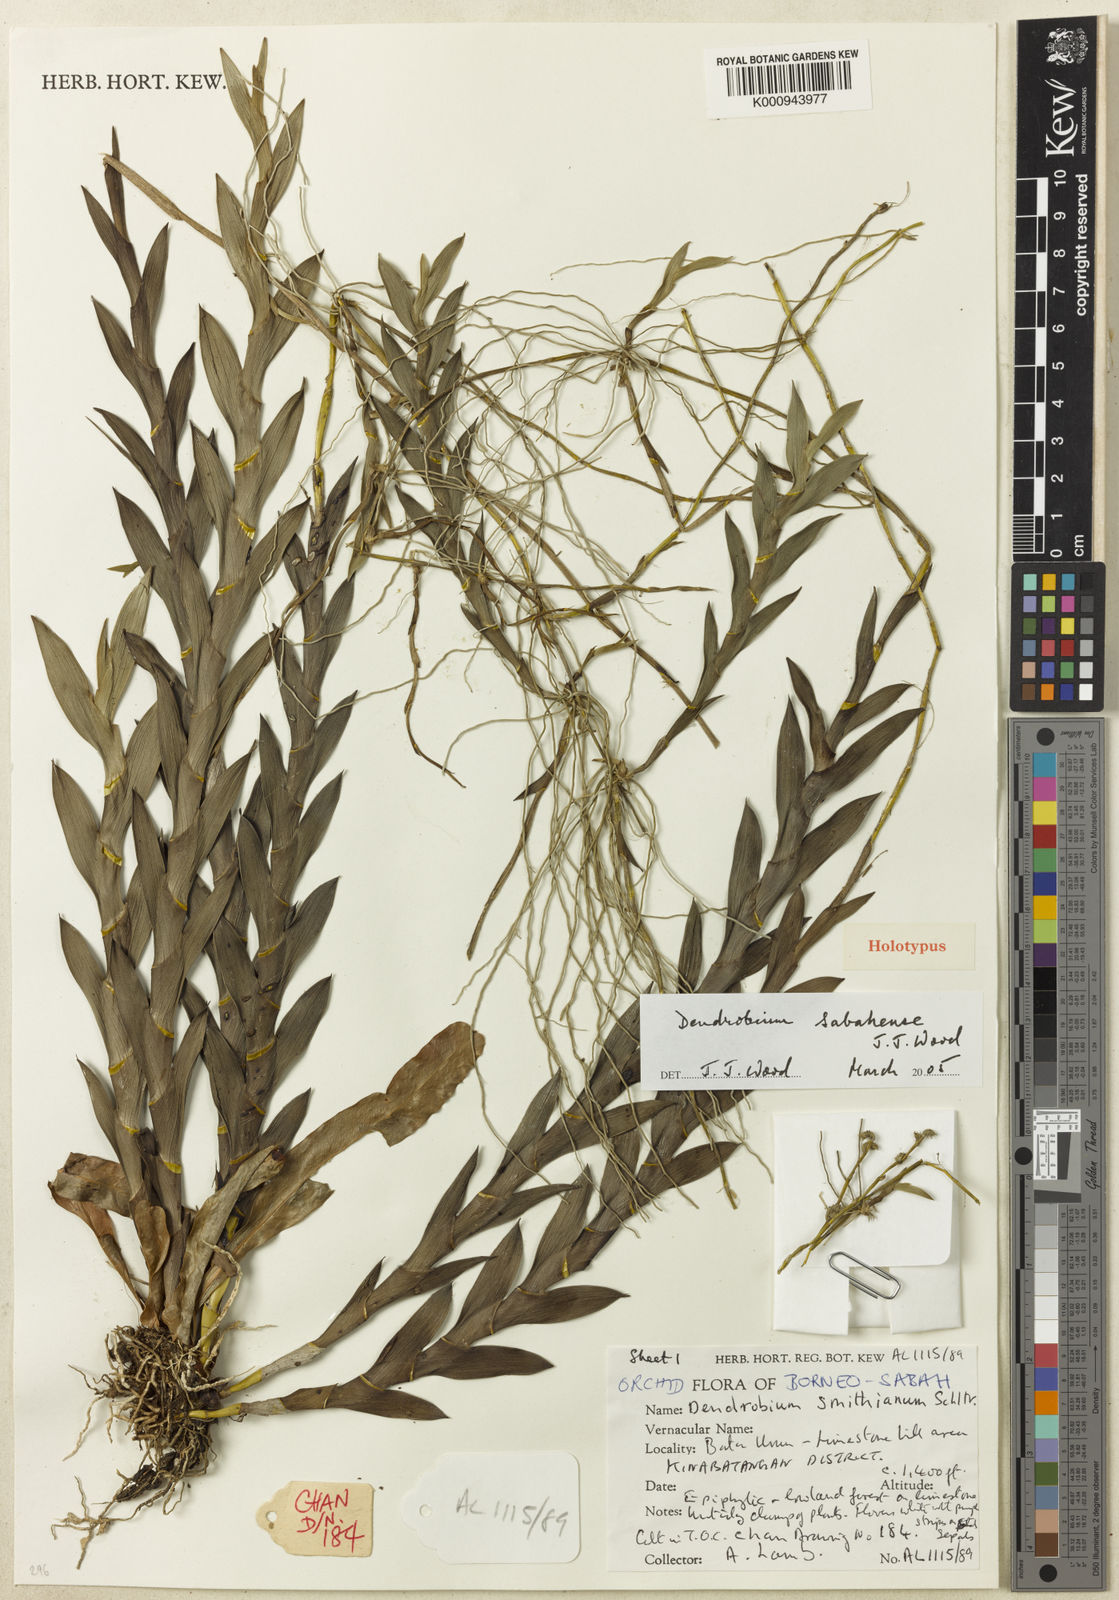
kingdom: Plantae
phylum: Tracheophyta
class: Liliopsida
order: Asparagales
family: Orchidaceae
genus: Dendrobium
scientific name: Dendrobium sabahense
